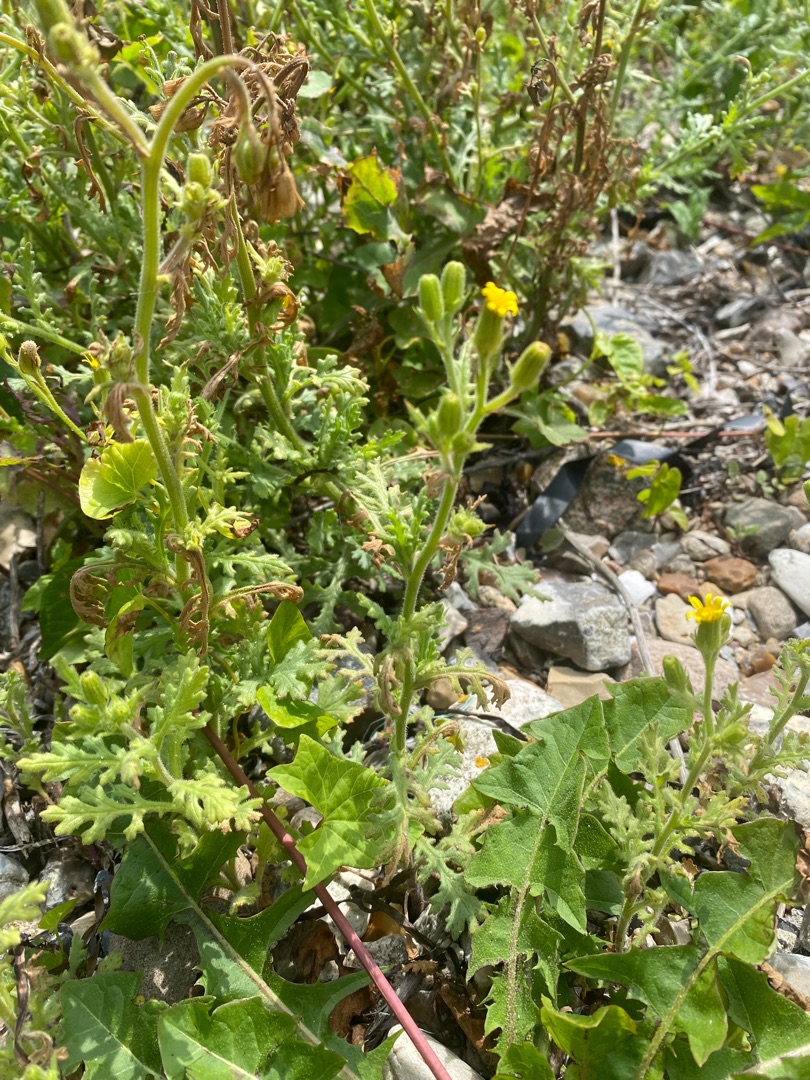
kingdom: Plantae
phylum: Tracheophyta
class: Magnoliopsida
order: Asterales
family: Asteraceae
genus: Senecio
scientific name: Senecio viscosus
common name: Klæbrig brandbæger
